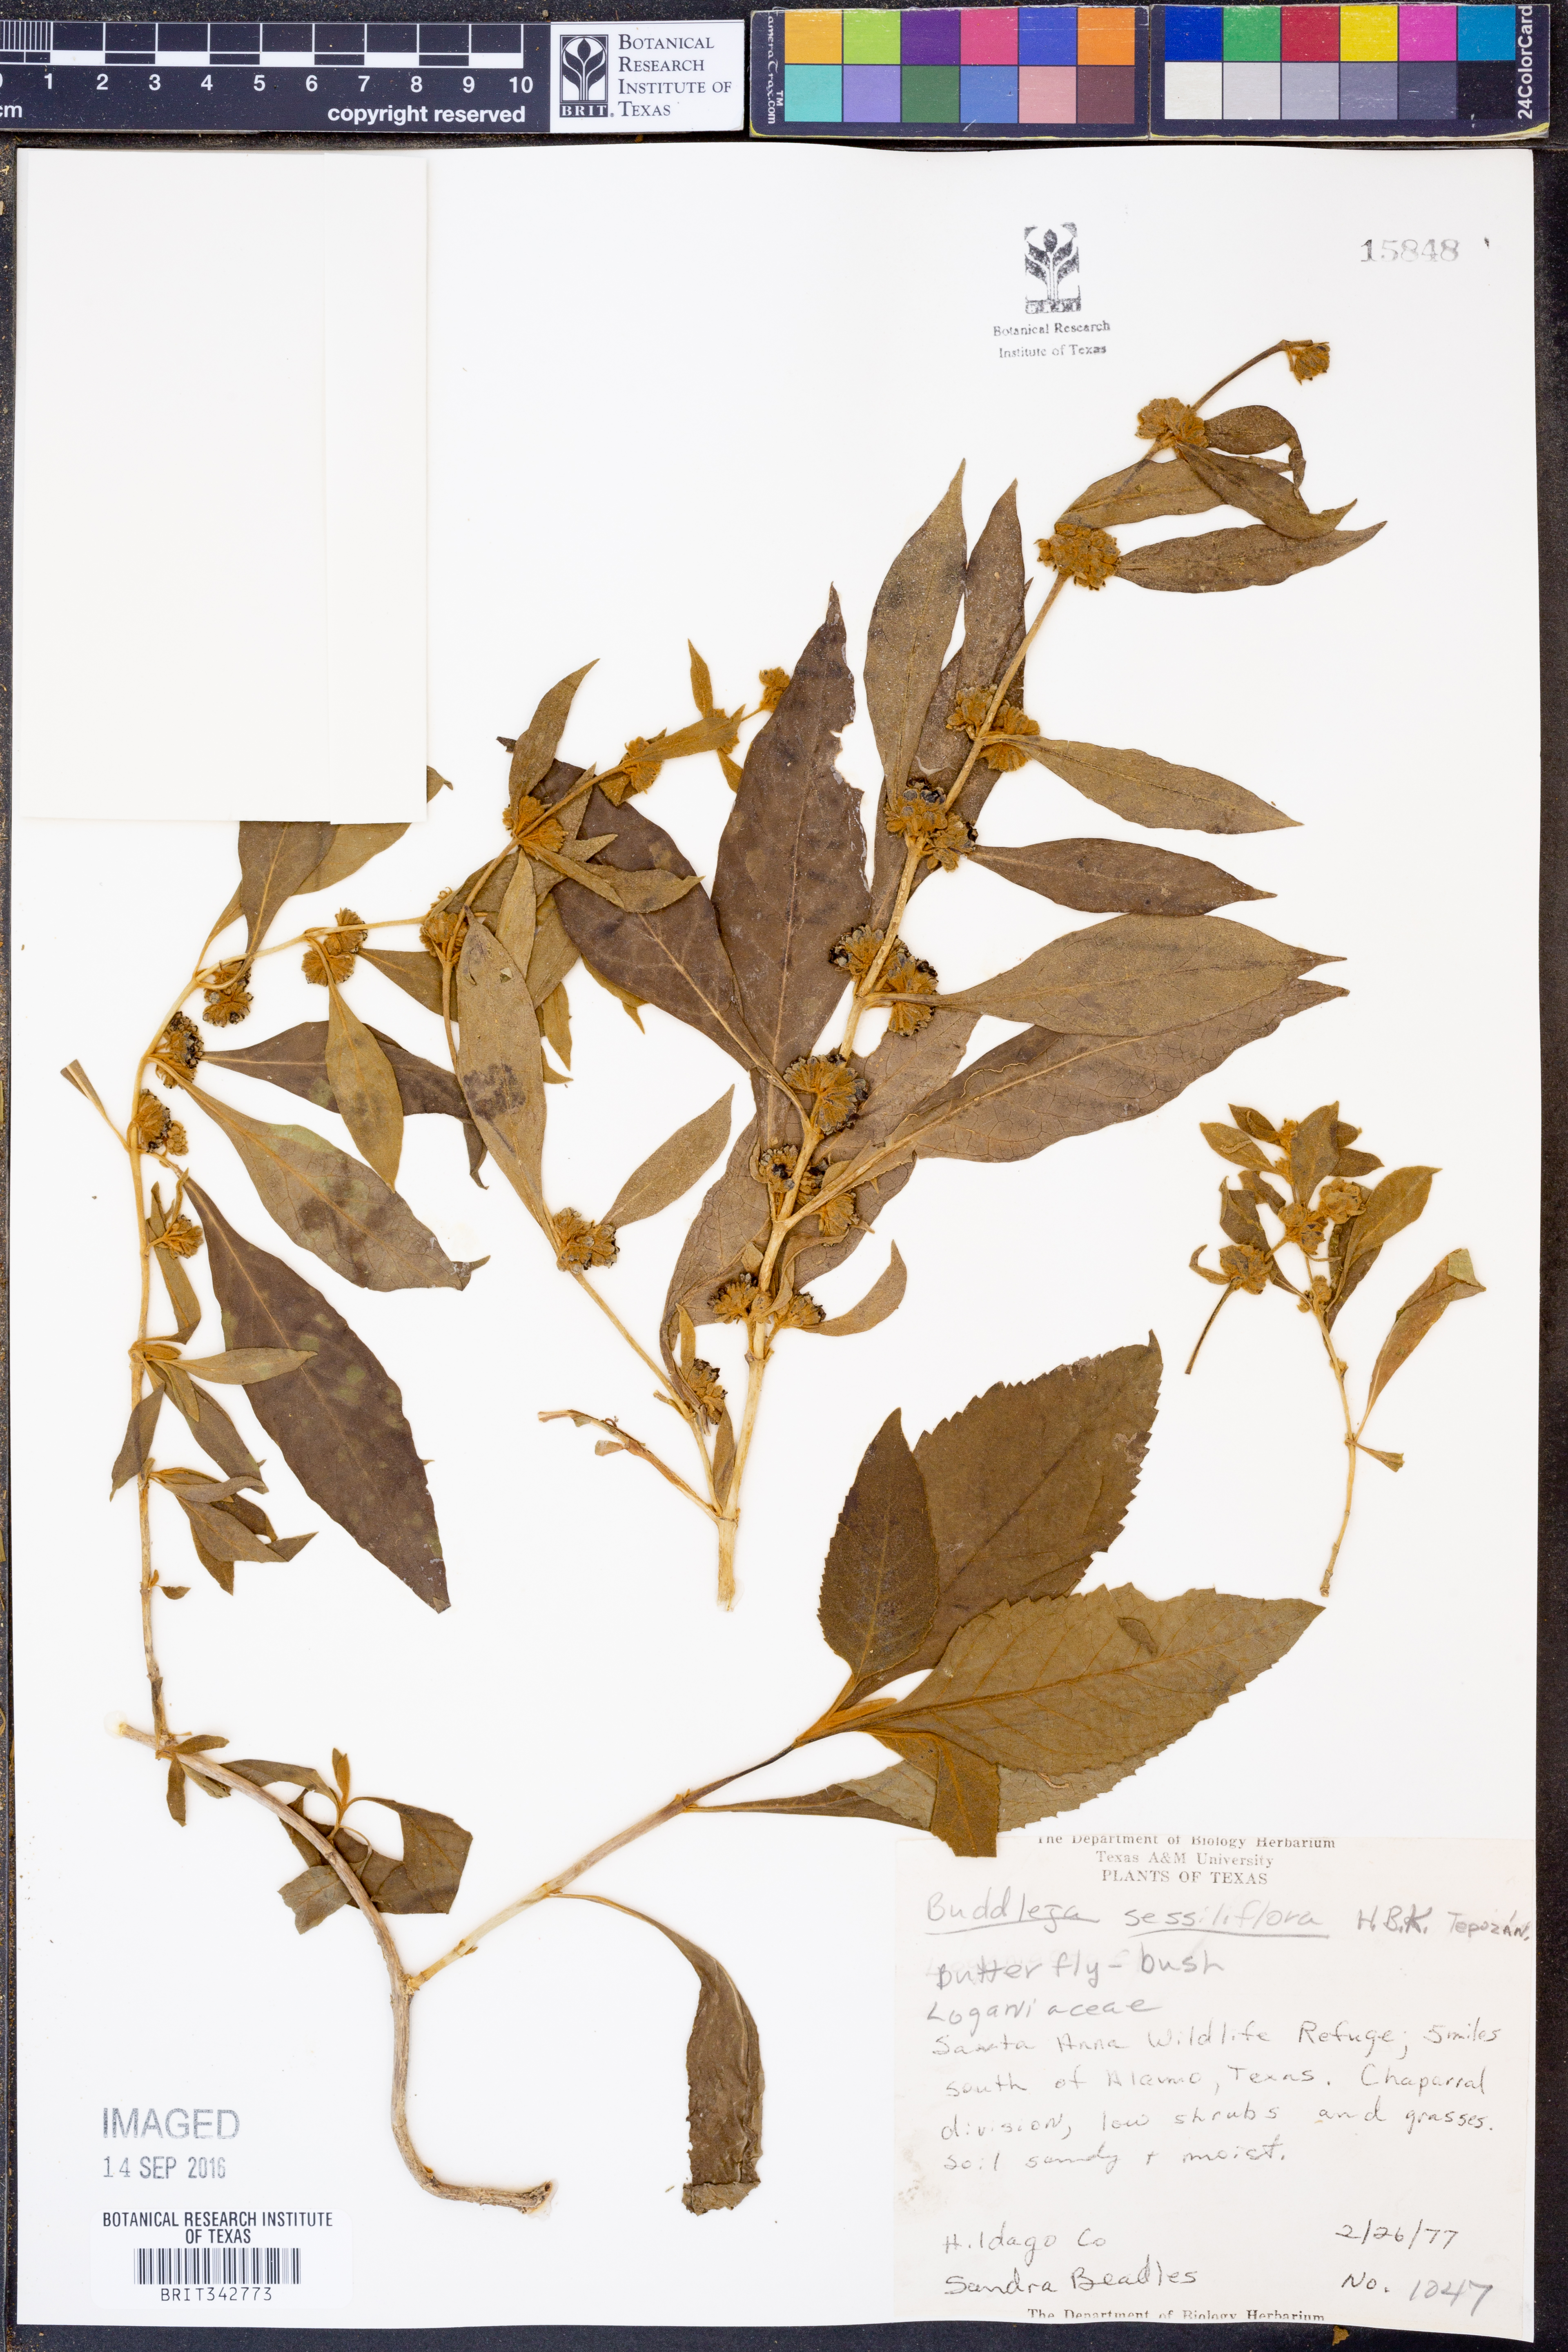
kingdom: Plantae
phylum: Tracheophyta
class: Magnoliopsida
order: Lamiales
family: Scrophulariaceae
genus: Buddleja
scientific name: Buddleja sessiliflora
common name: Rio grande butterfly-bush
